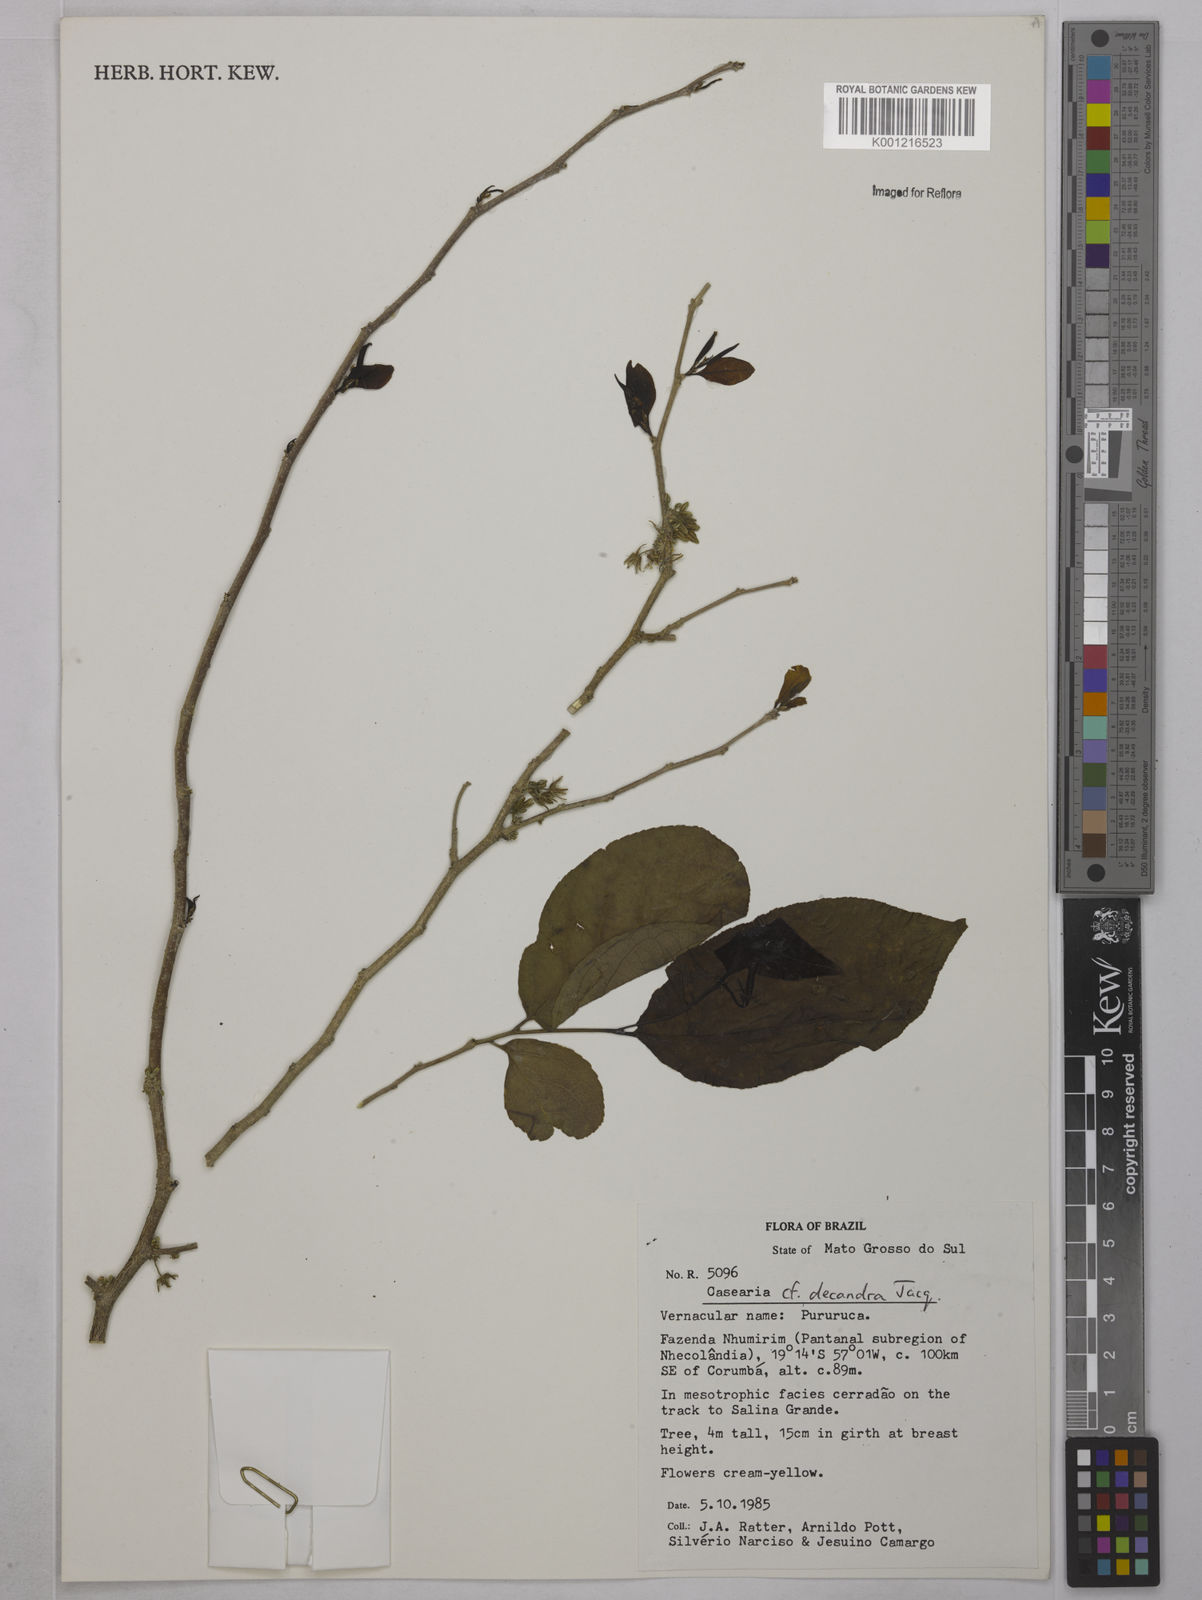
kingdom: Plantae
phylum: Tracheophyta
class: Magnoliopsida
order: Malpighiales
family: Salicaceae
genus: Casearia
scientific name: Casearia decandra
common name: Crack open
